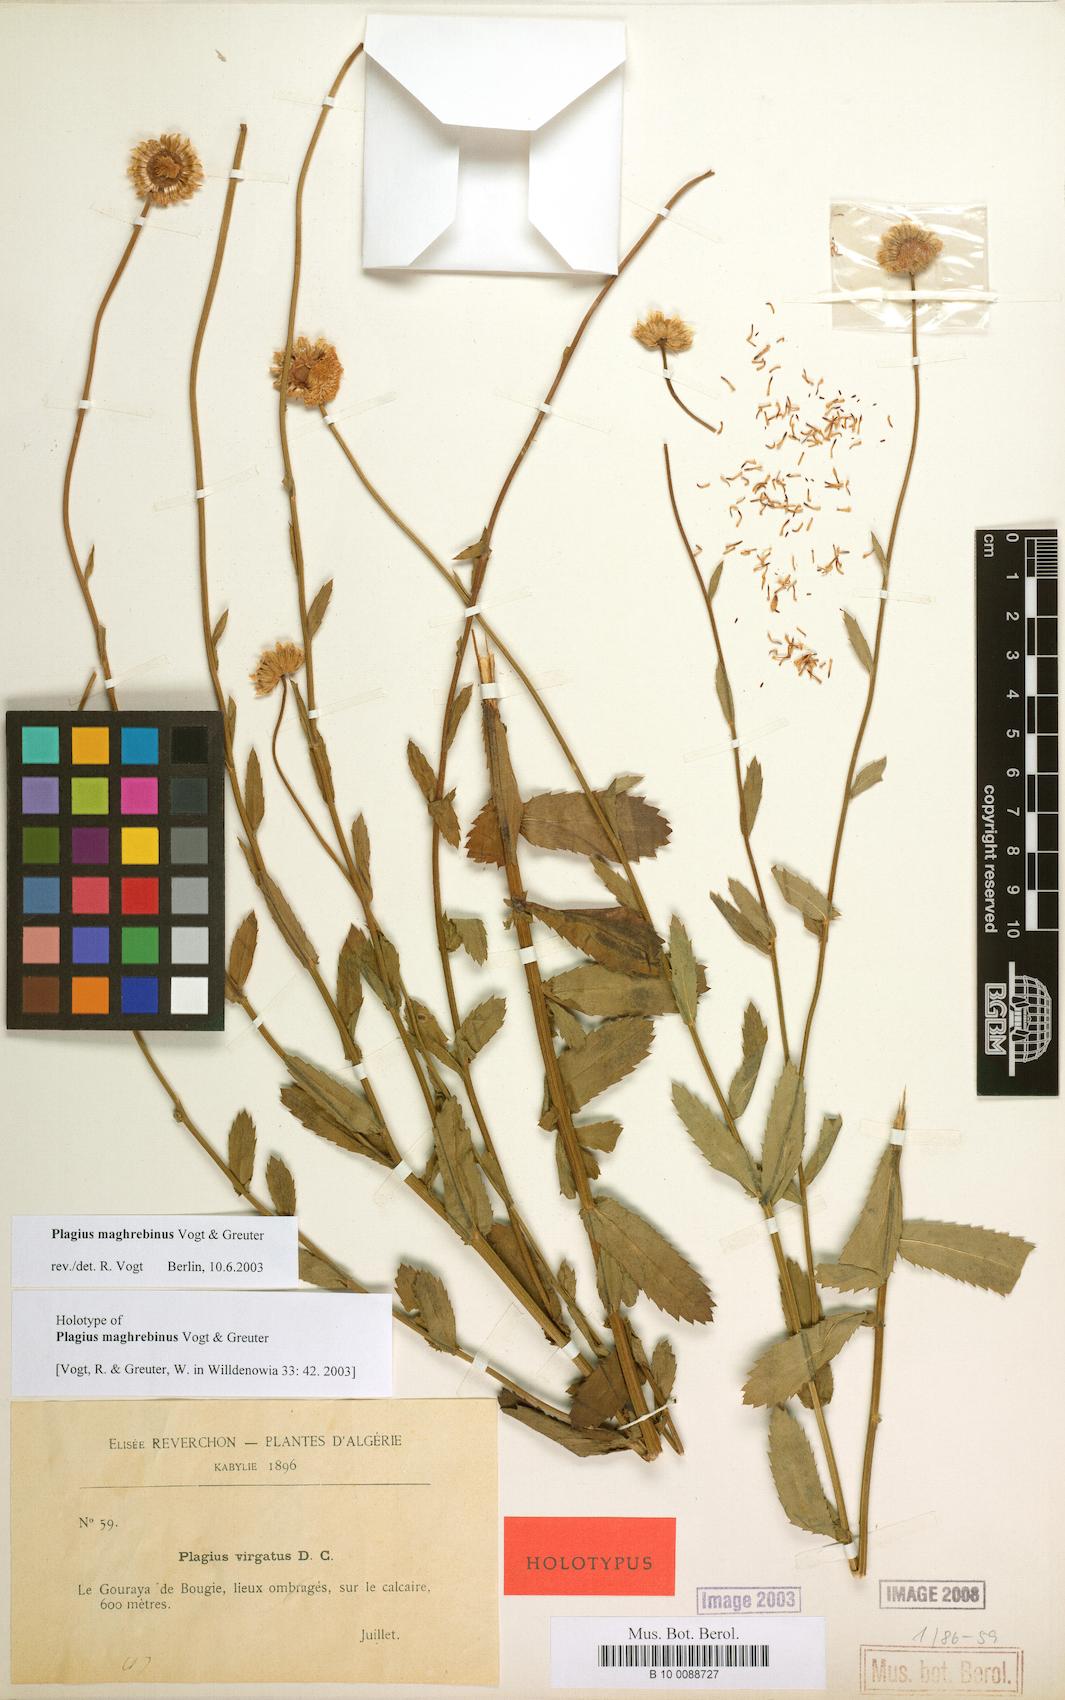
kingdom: Plantae
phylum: Tracheophyta
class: Magnoliopsida
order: Asterales
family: Asteraceae
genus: Plagius
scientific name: Plagius maghrebinus
